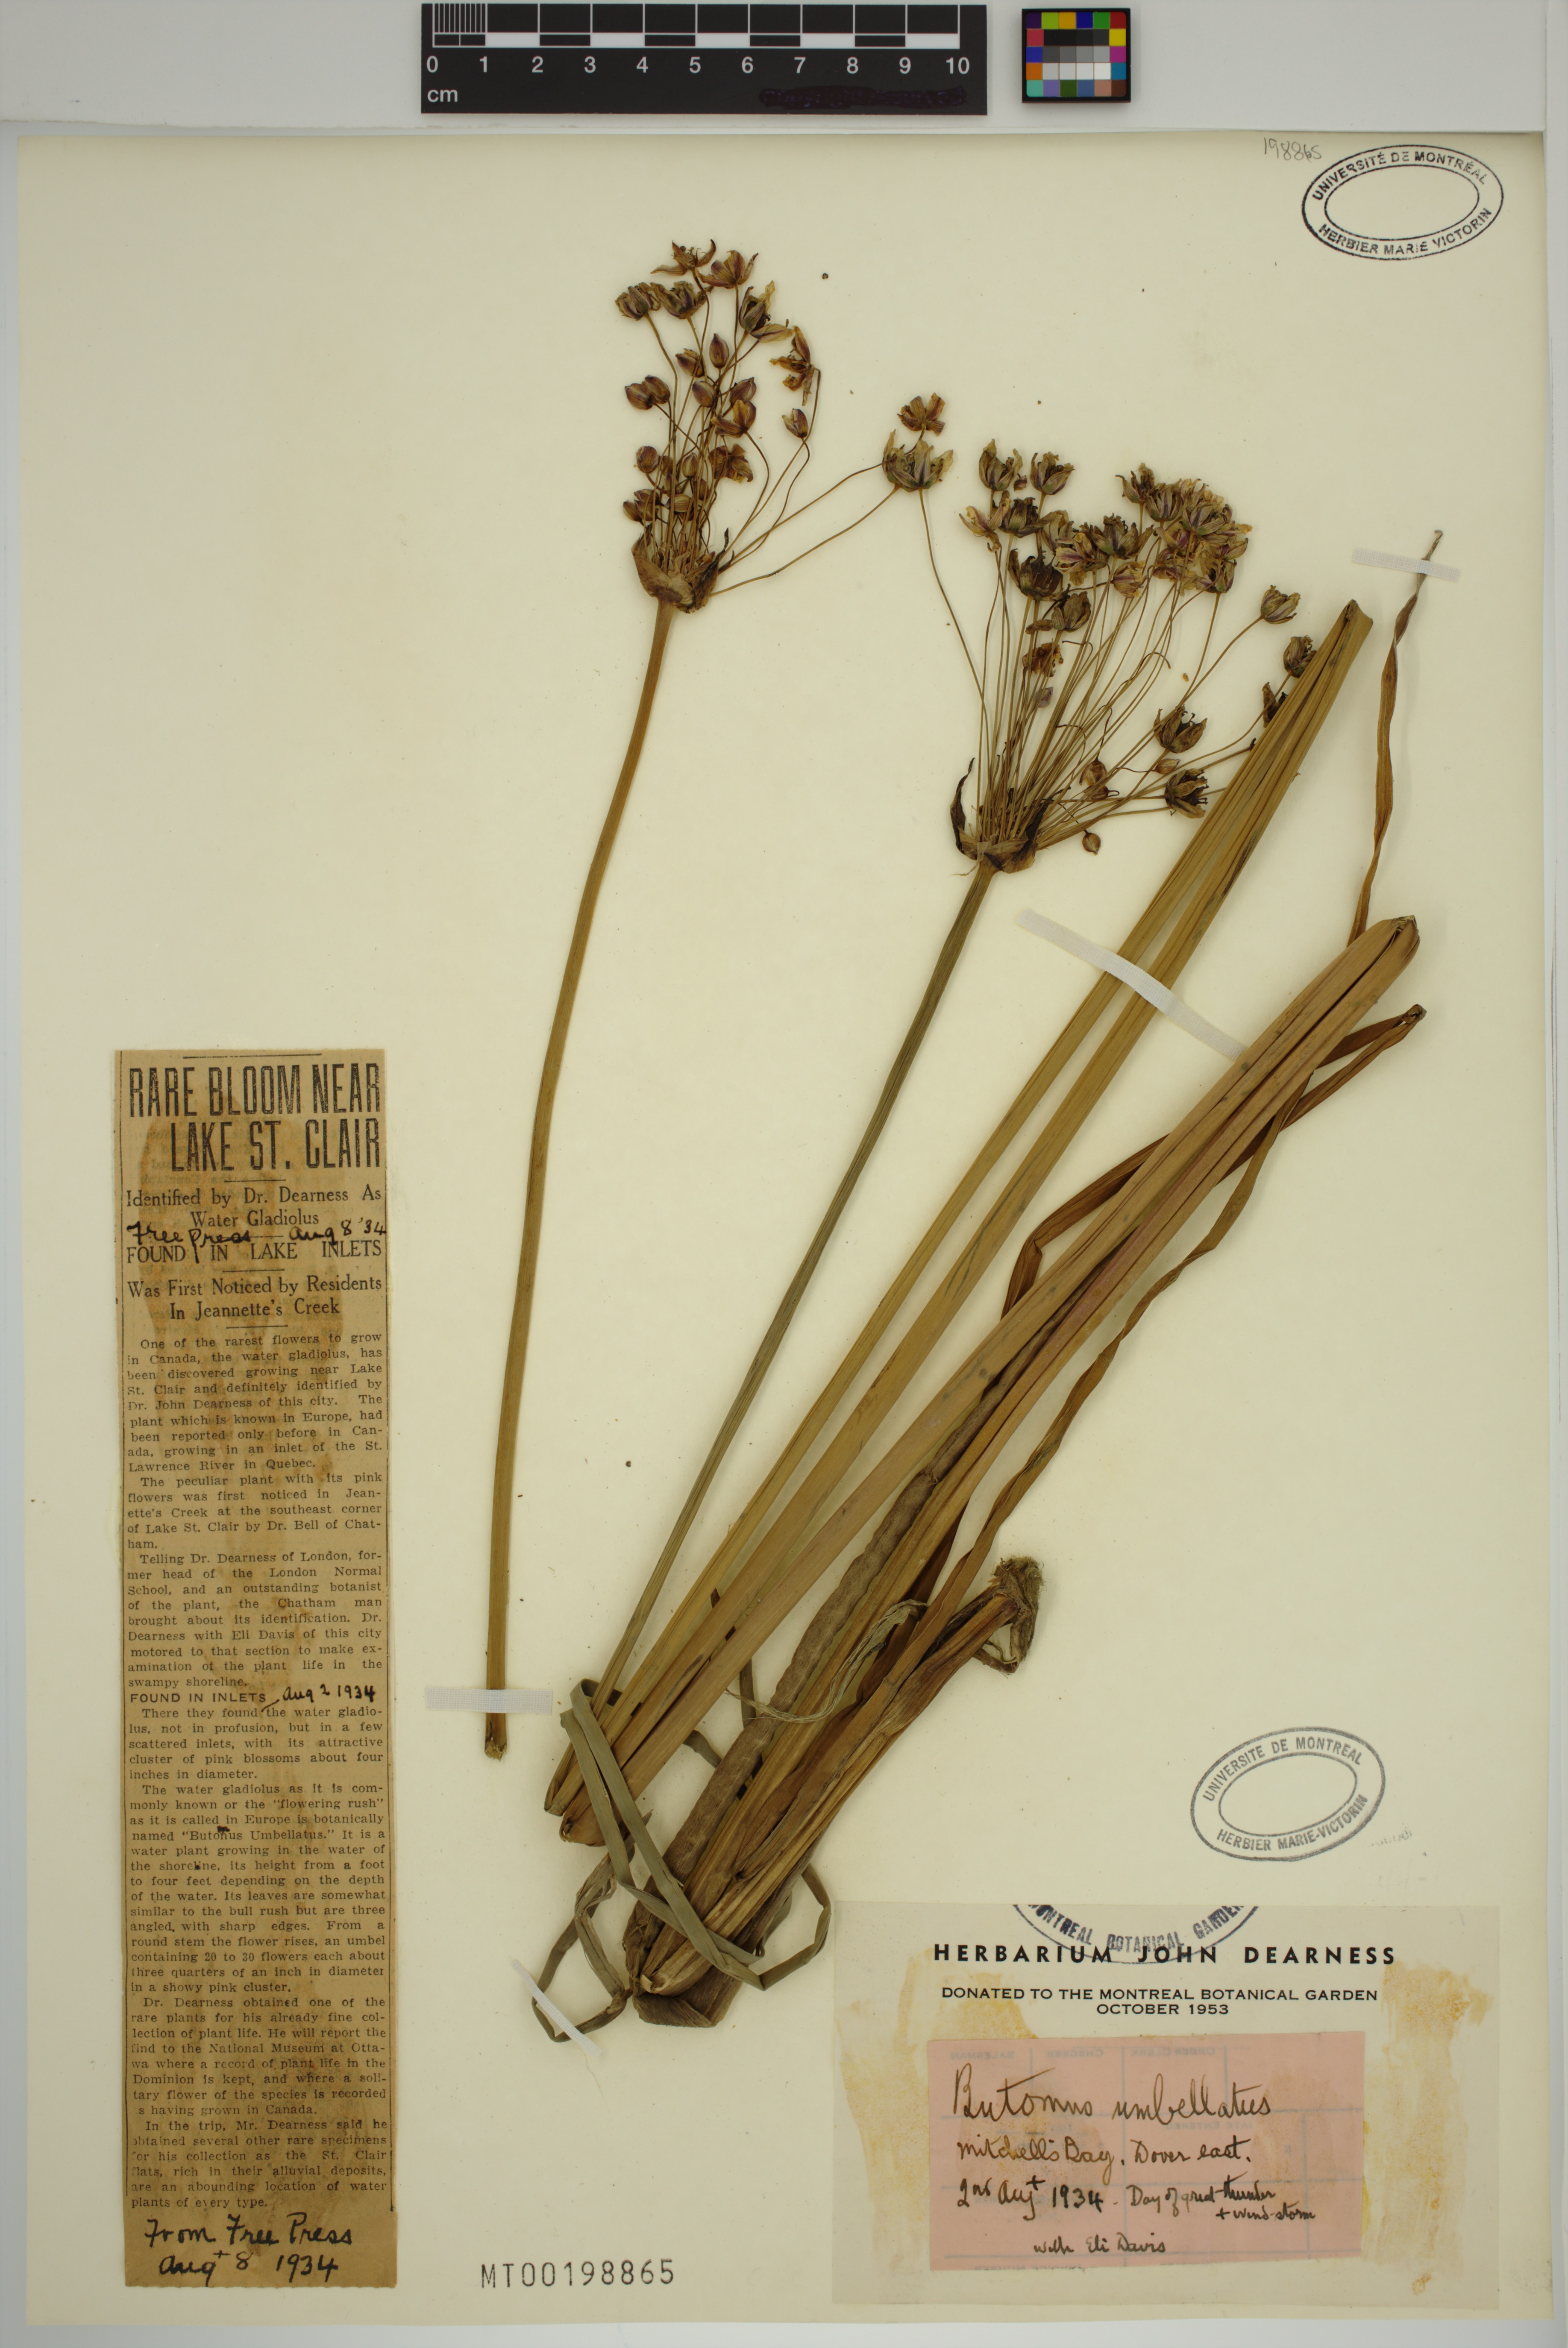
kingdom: Plantae
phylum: Tracheophyta
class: Liliopsida
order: Alismatales
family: Butomaceae
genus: Butomus
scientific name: Butomus umbellatus
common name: Flowering-rush
